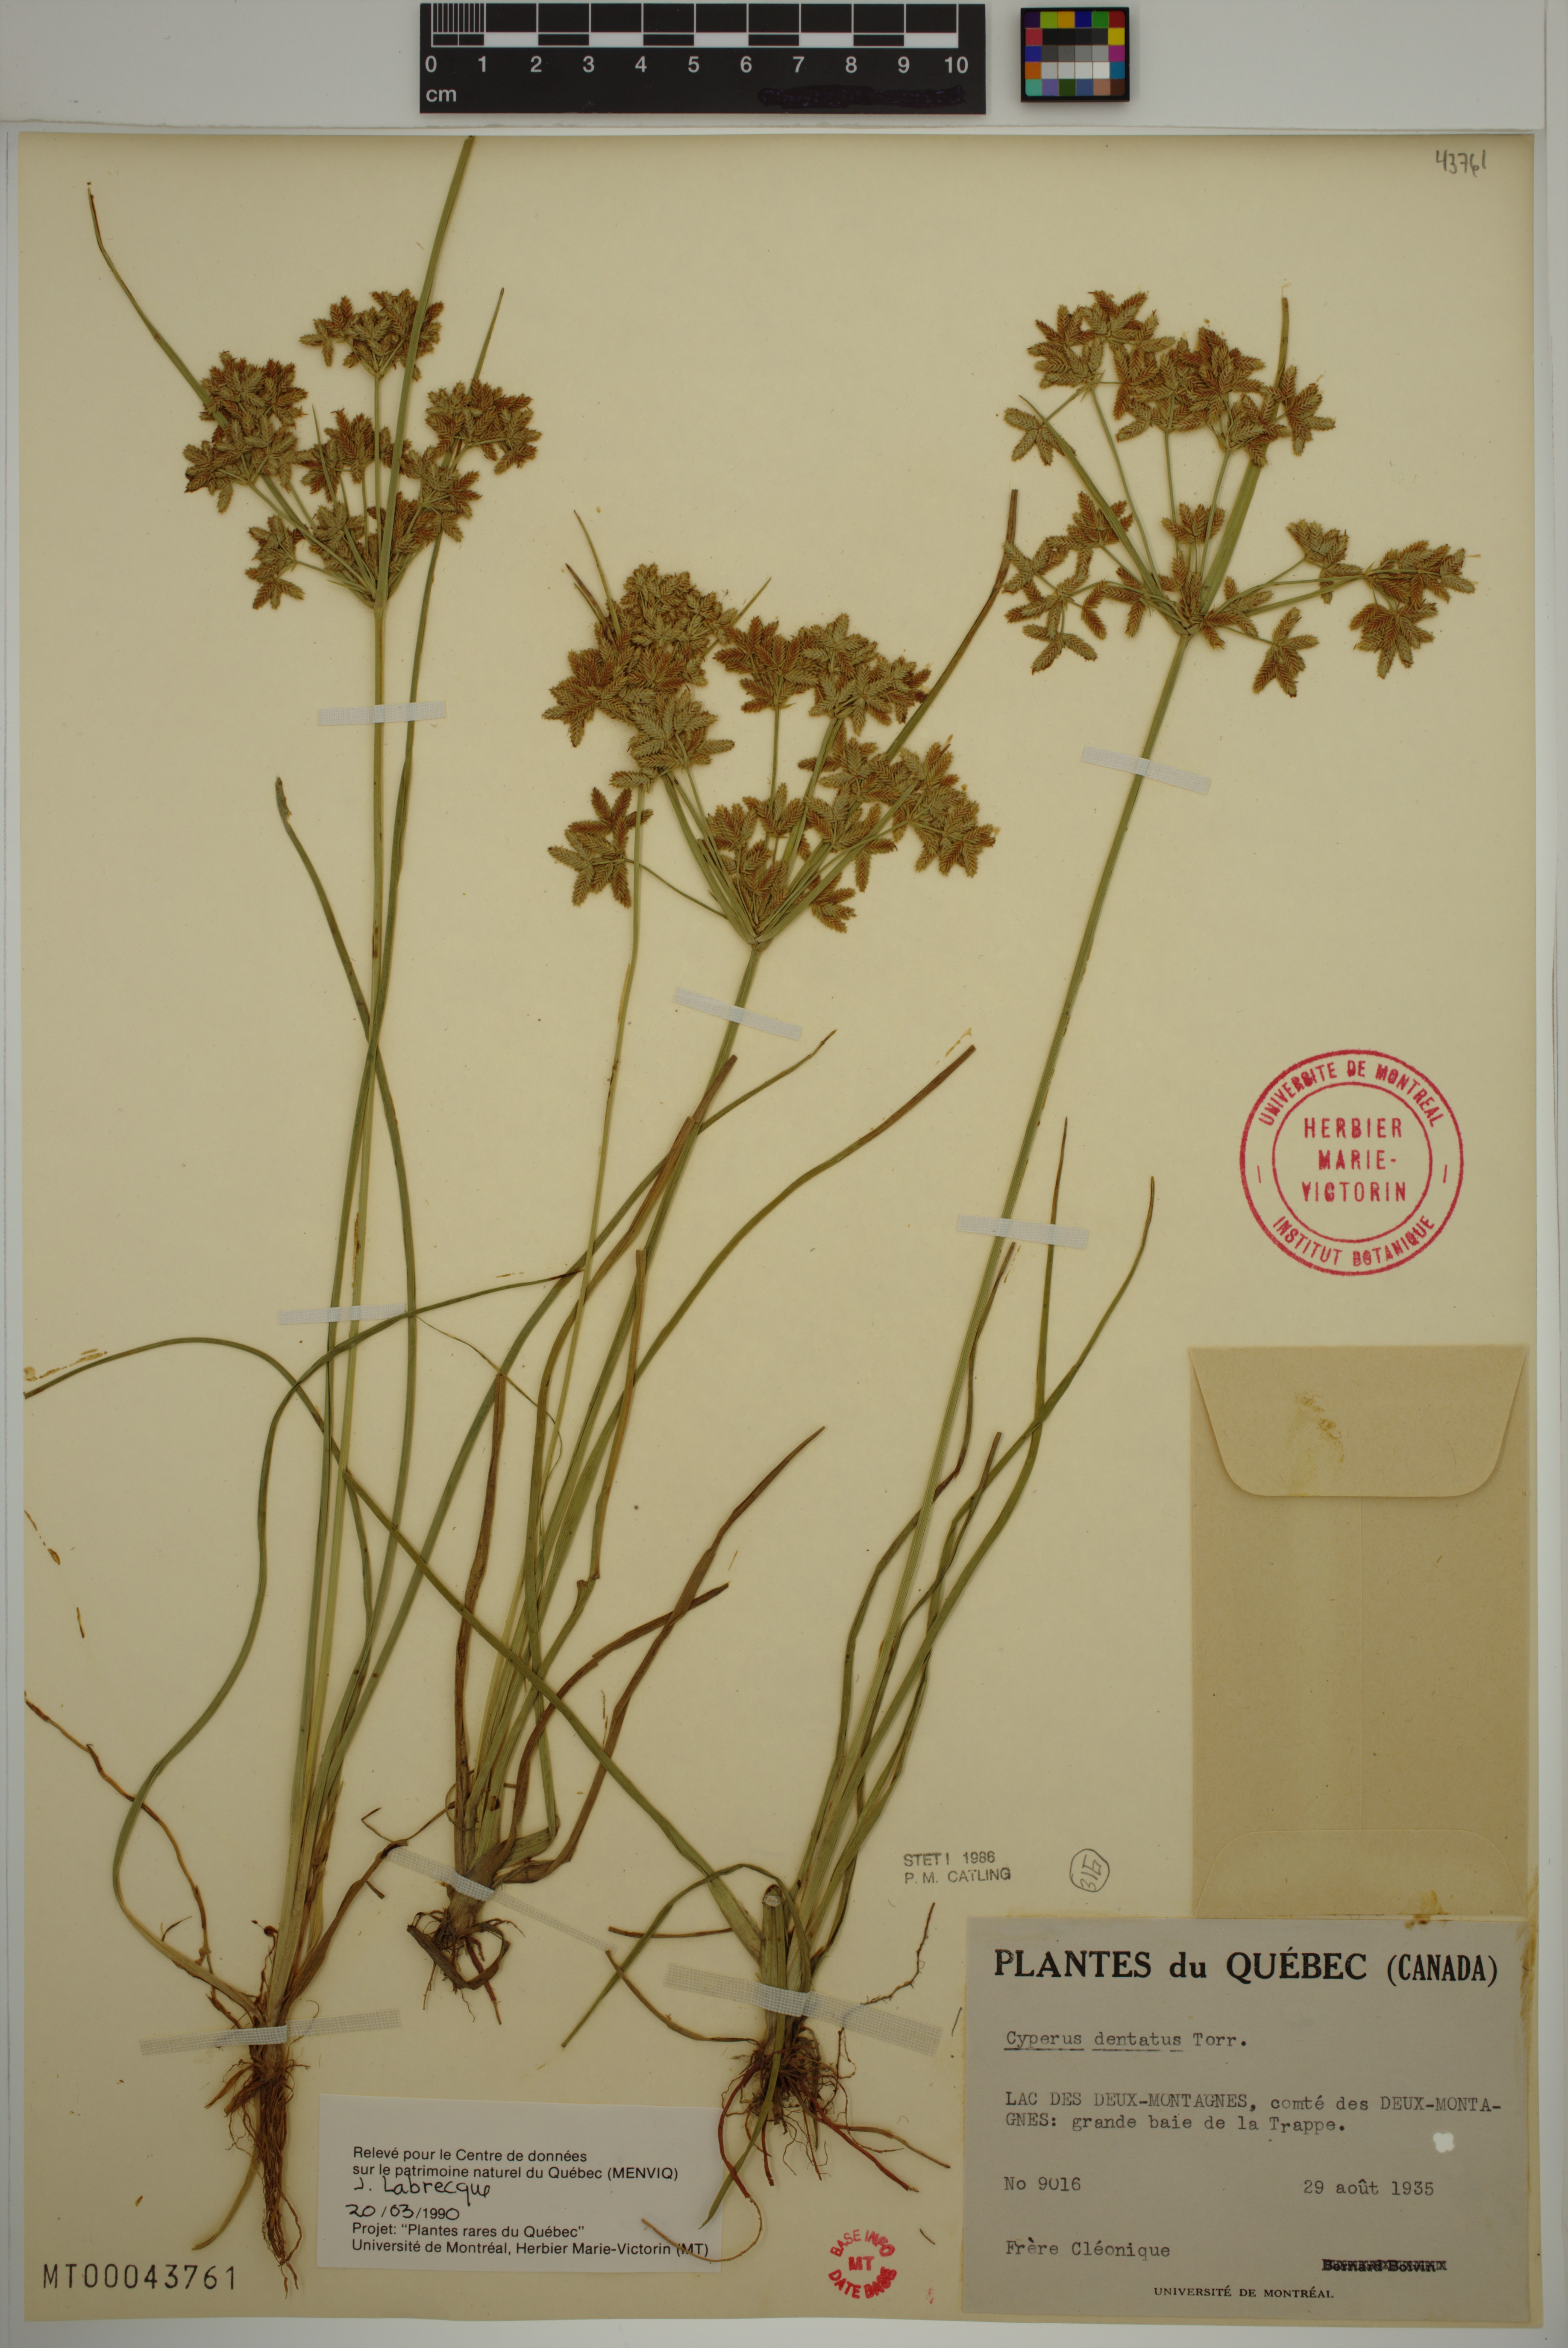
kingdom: Plantae
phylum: Tracheophyta
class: Liliopsida
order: Poales
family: Cyperaceae
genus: Cyperus
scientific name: Cyperus dentatus
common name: Dentate umbrella sedge
